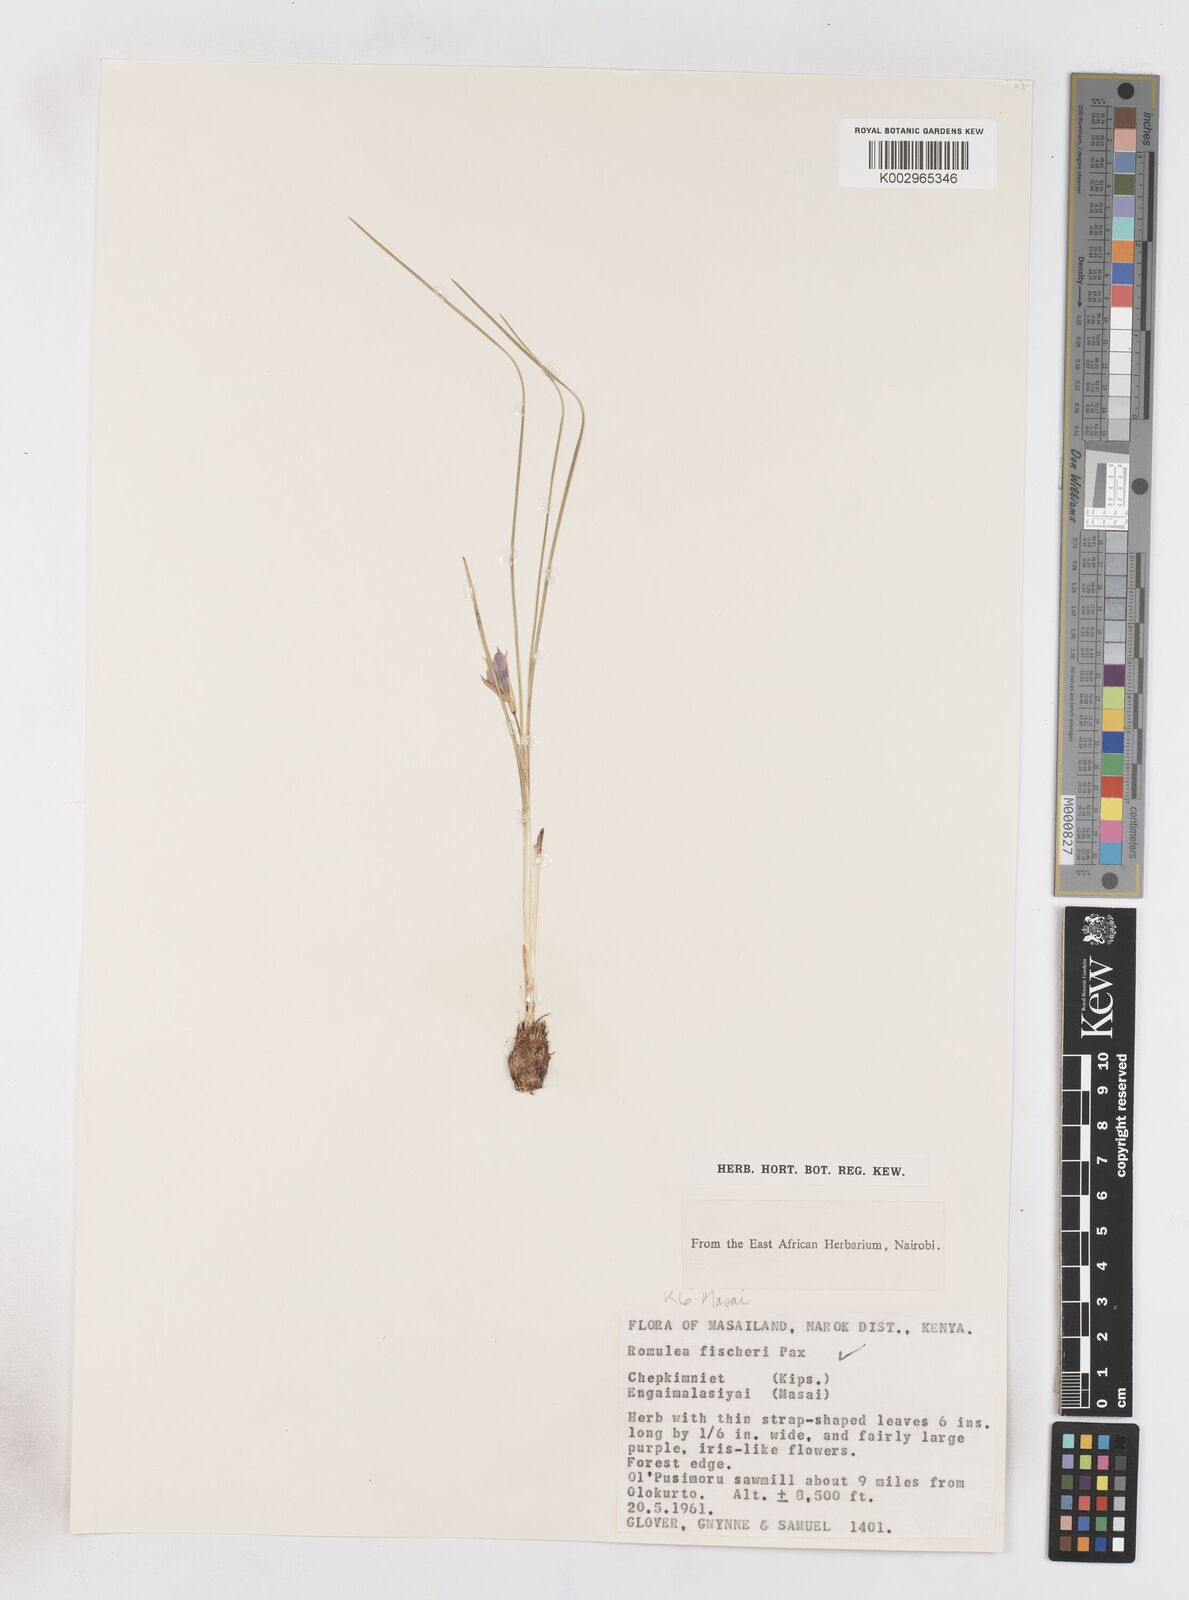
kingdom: Plantae
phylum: Tracheophyta
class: Liliopsida
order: Asparagales
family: Iridaceae
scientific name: Iridaceae
